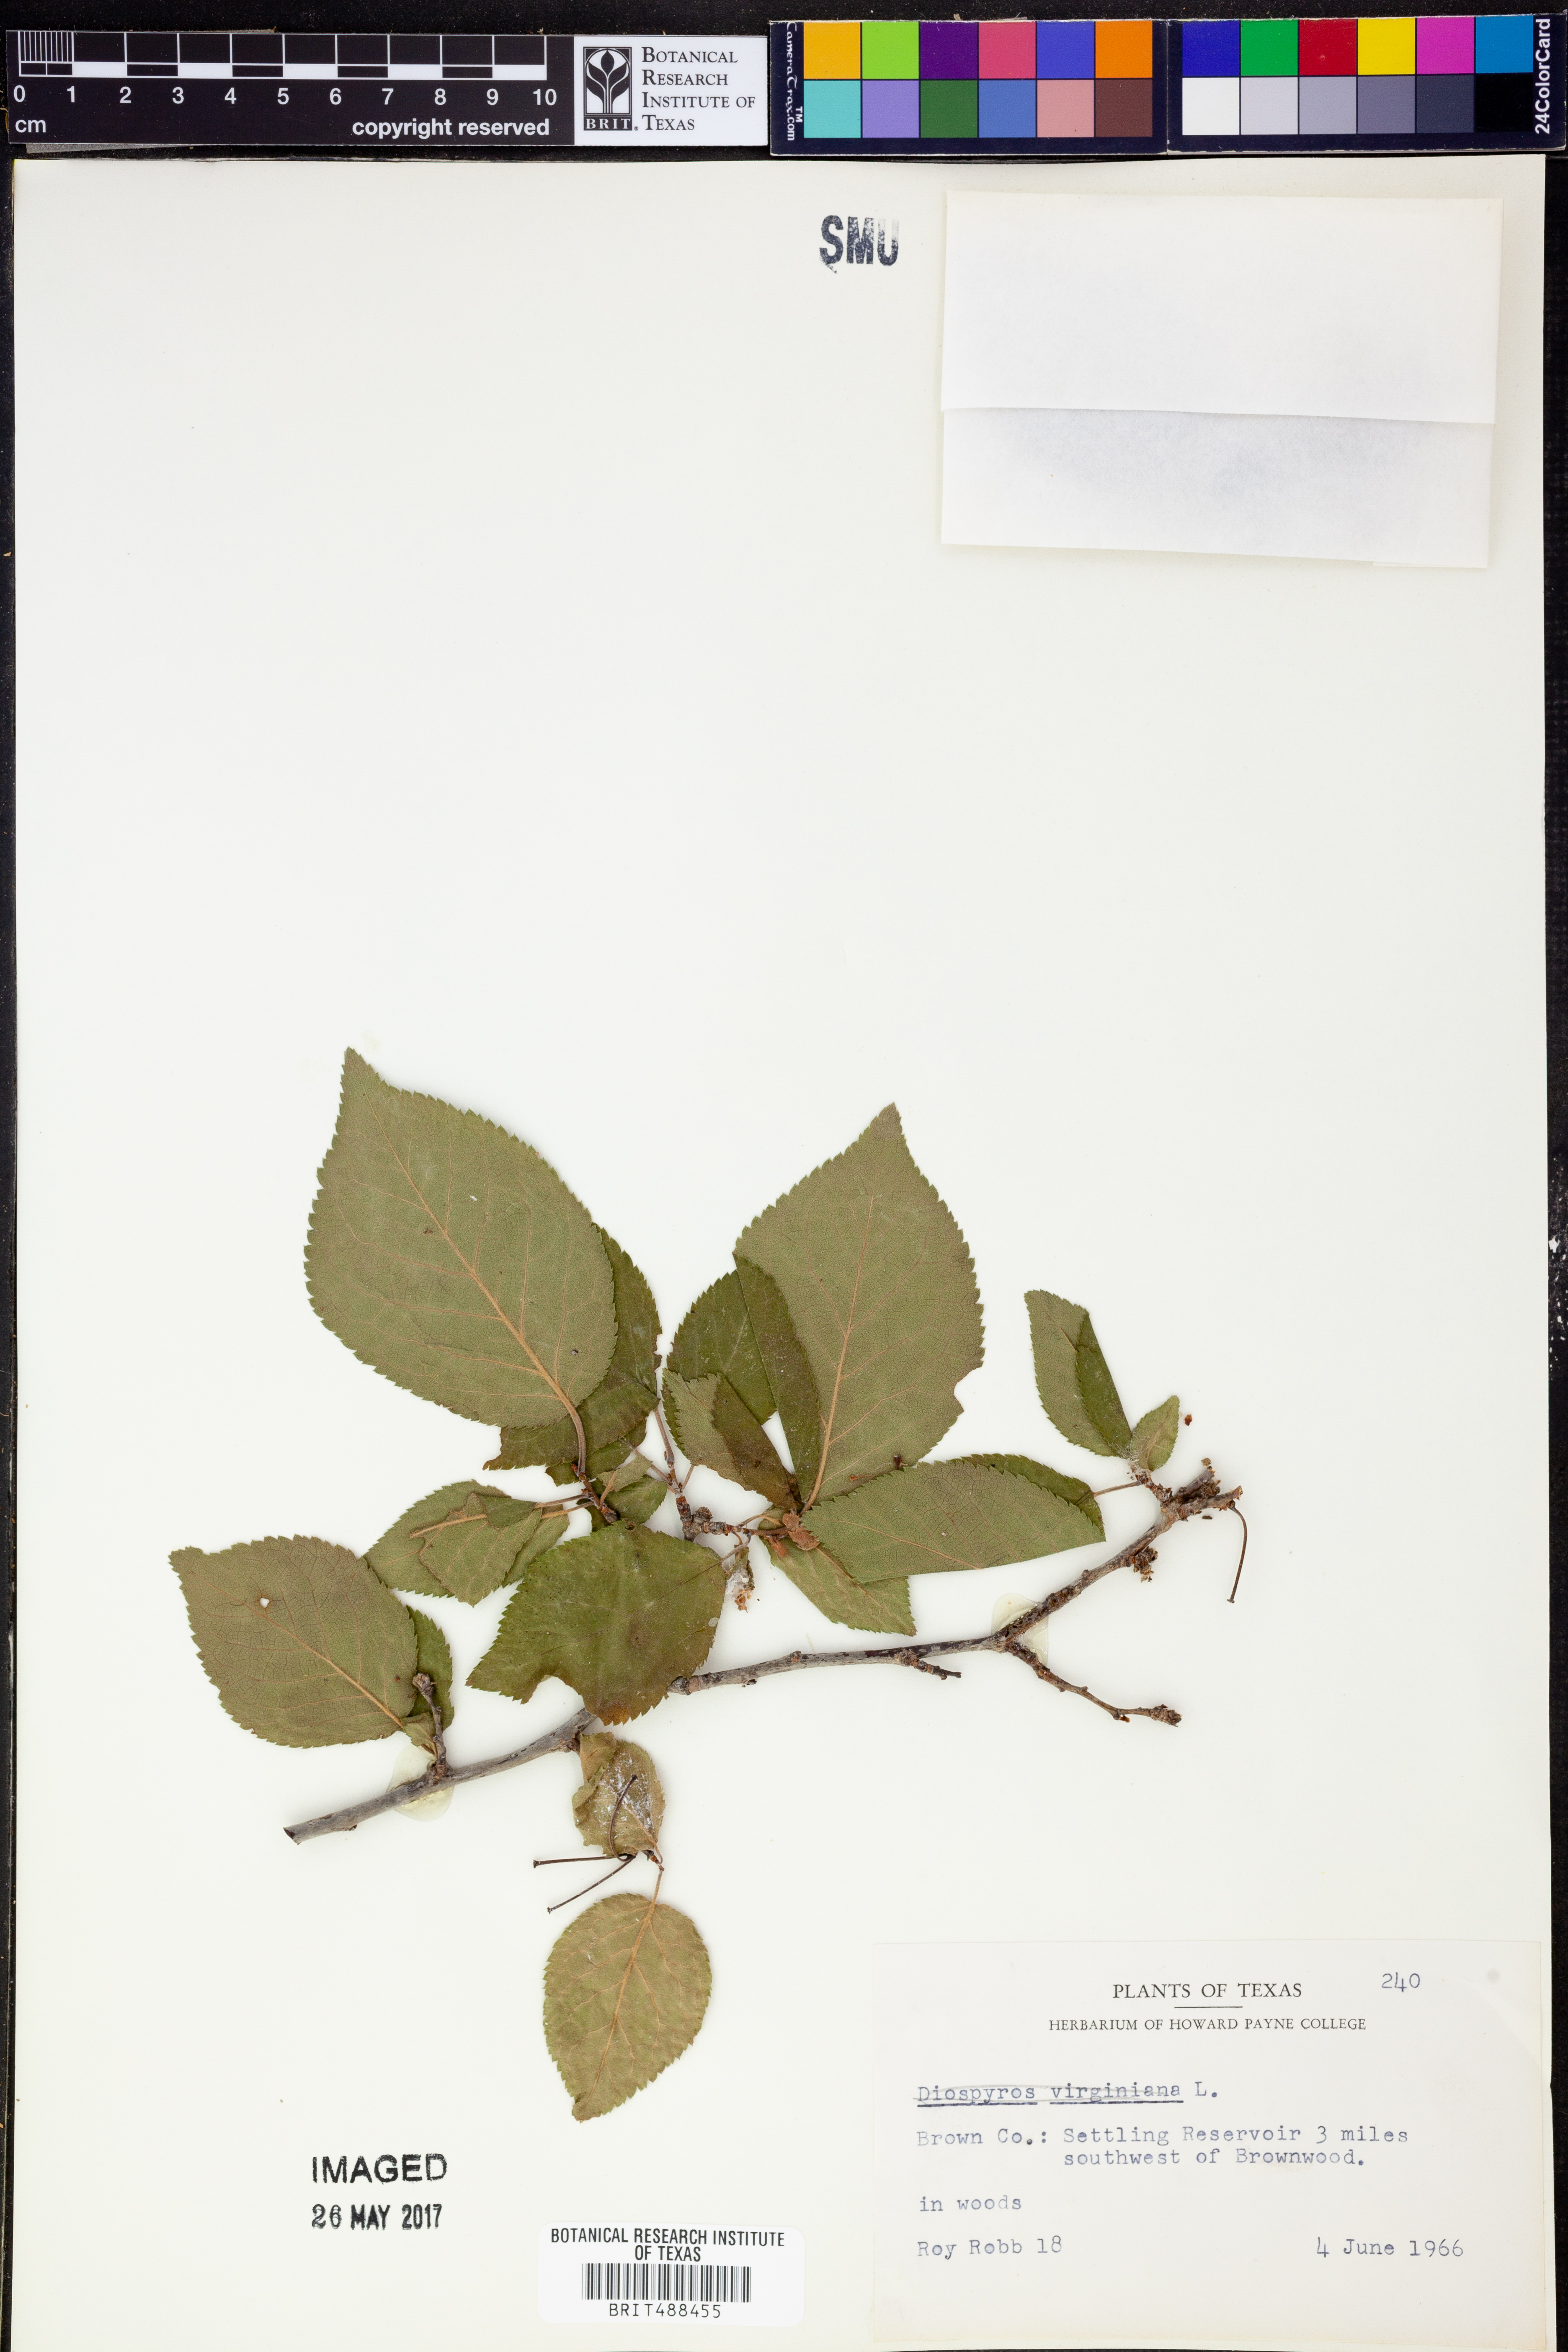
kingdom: Plantae
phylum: Tracheophyta
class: Magnoliopsida
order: Ericales
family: Ebenaceae
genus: Diospyros
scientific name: Diospyros virginiana
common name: Persimmon
